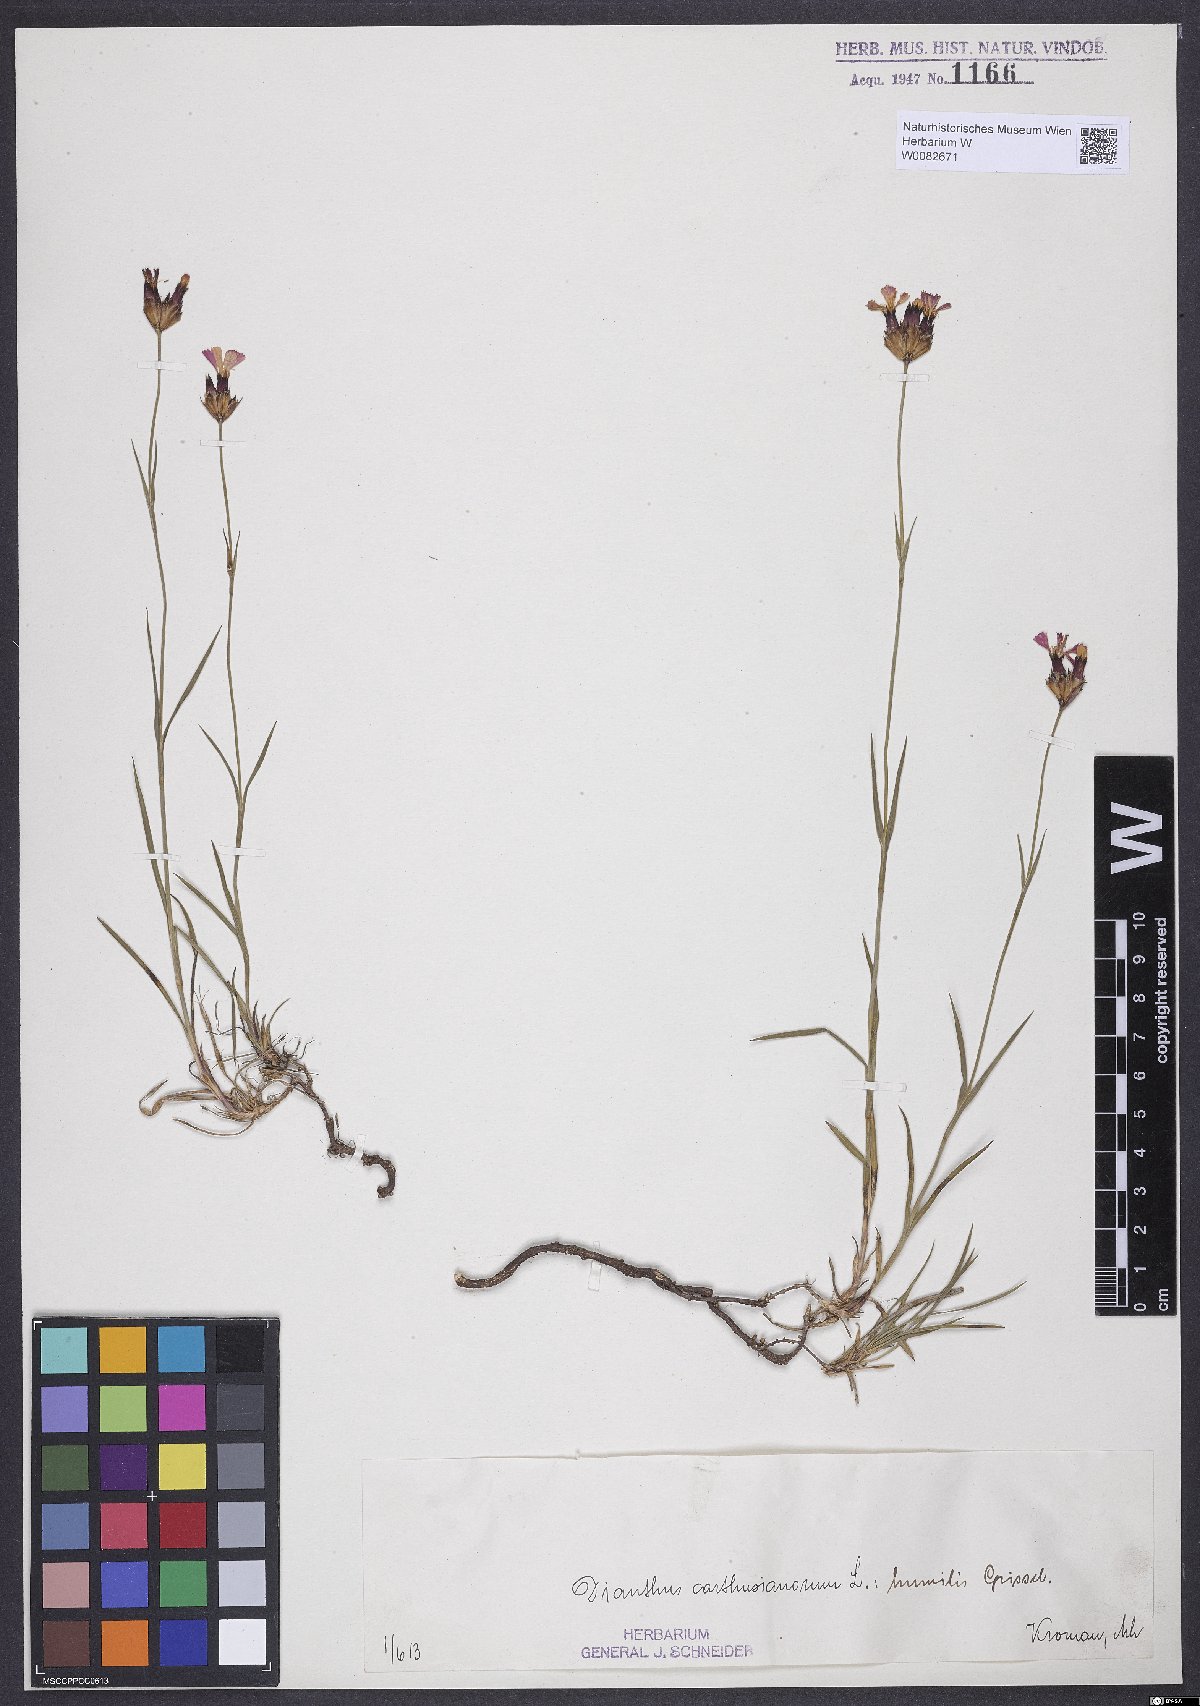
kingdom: Plantae
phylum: Tracheophyta
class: Magnoliopsida
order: Caryophyllales
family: Caryophyllaceae
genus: Dianthus
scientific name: Dianthus carthusianorum
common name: Carthusian pink
